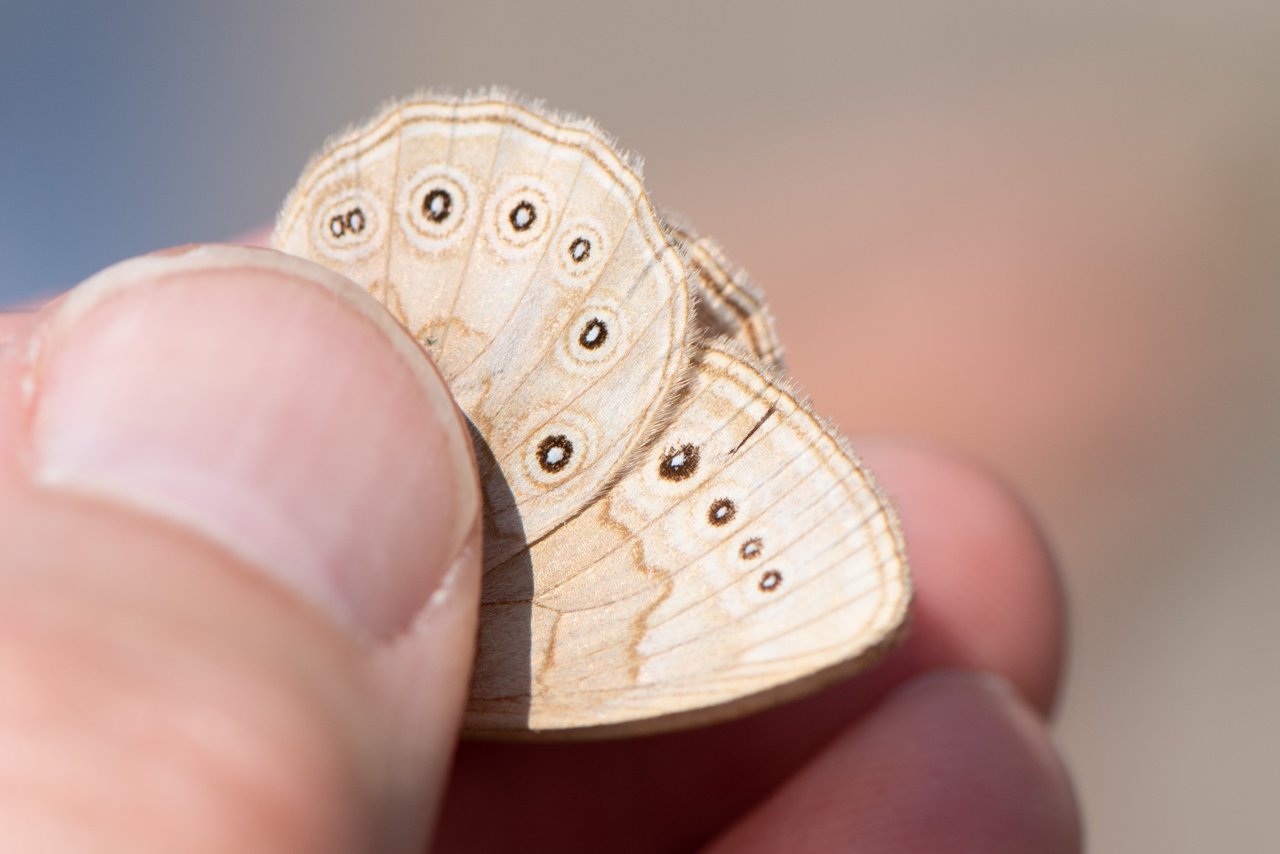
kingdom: Animalia
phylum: Arthropoda
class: Insecta
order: Lepidoptera
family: Nymphalidae
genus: Lethe
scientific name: Lethe eurydice
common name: Eyed Brown
